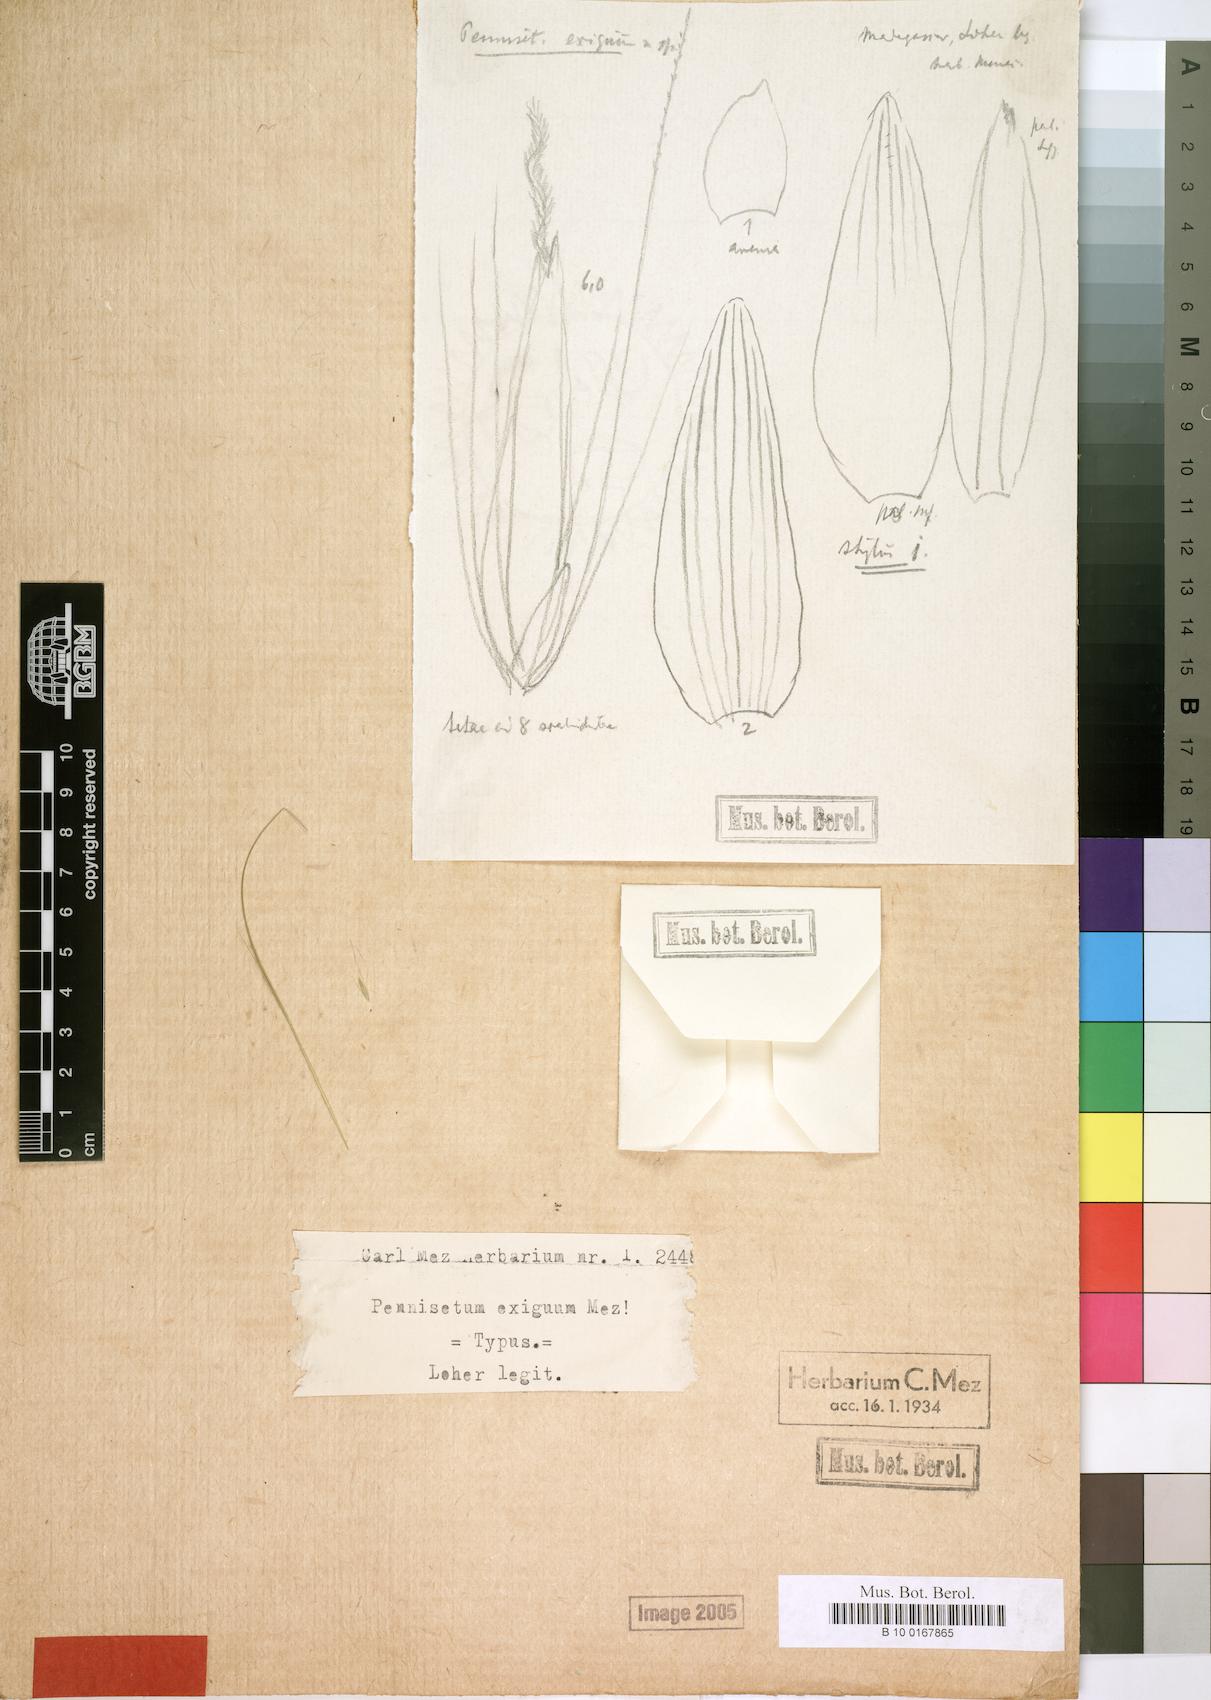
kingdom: Plantae
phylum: Tracheophyta
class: Liliopsida
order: Poales
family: Poaceae
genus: Cenchrus
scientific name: Cenchrus exiguus
